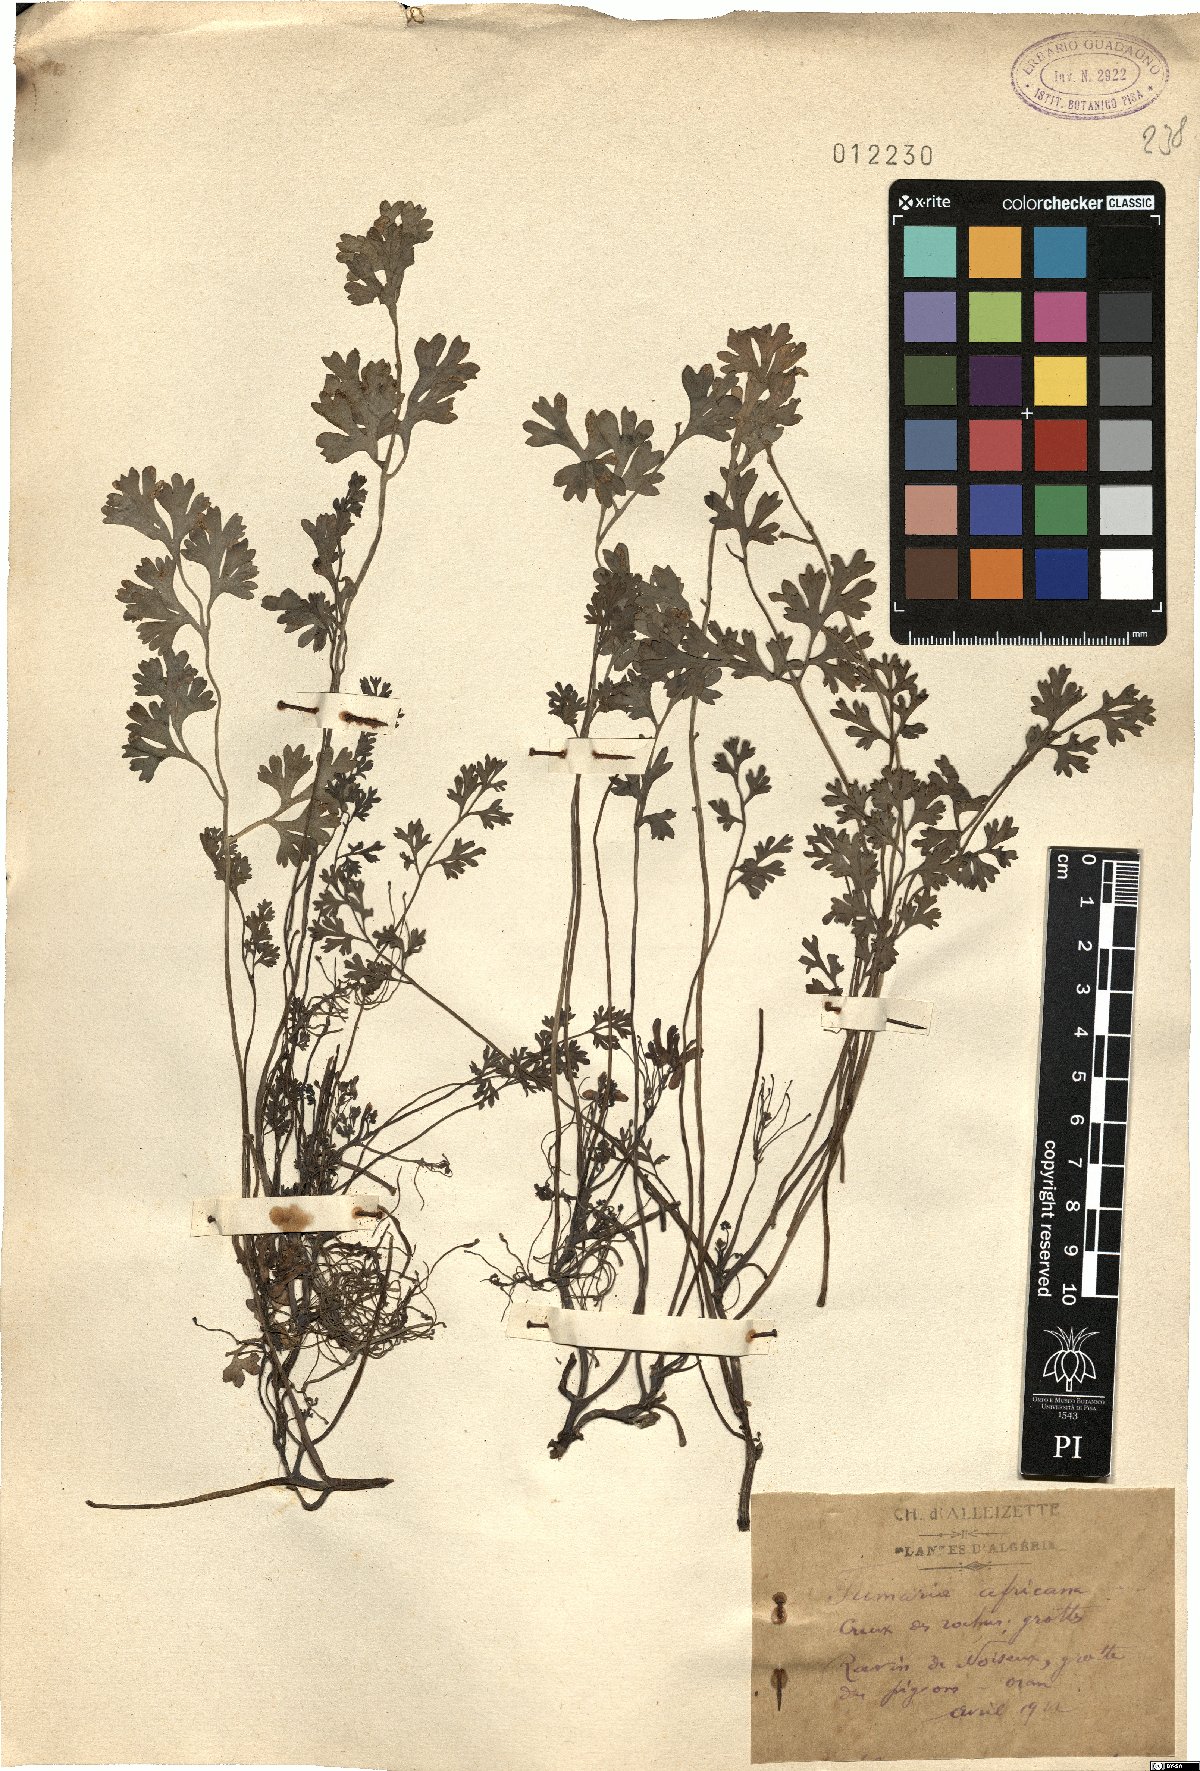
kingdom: Plantae
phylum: Tracheophyta
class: Magnoliopsida
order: Ranunculales
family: Papaveraceae
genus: Rupicapnos
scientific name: Rupicapnos africana
